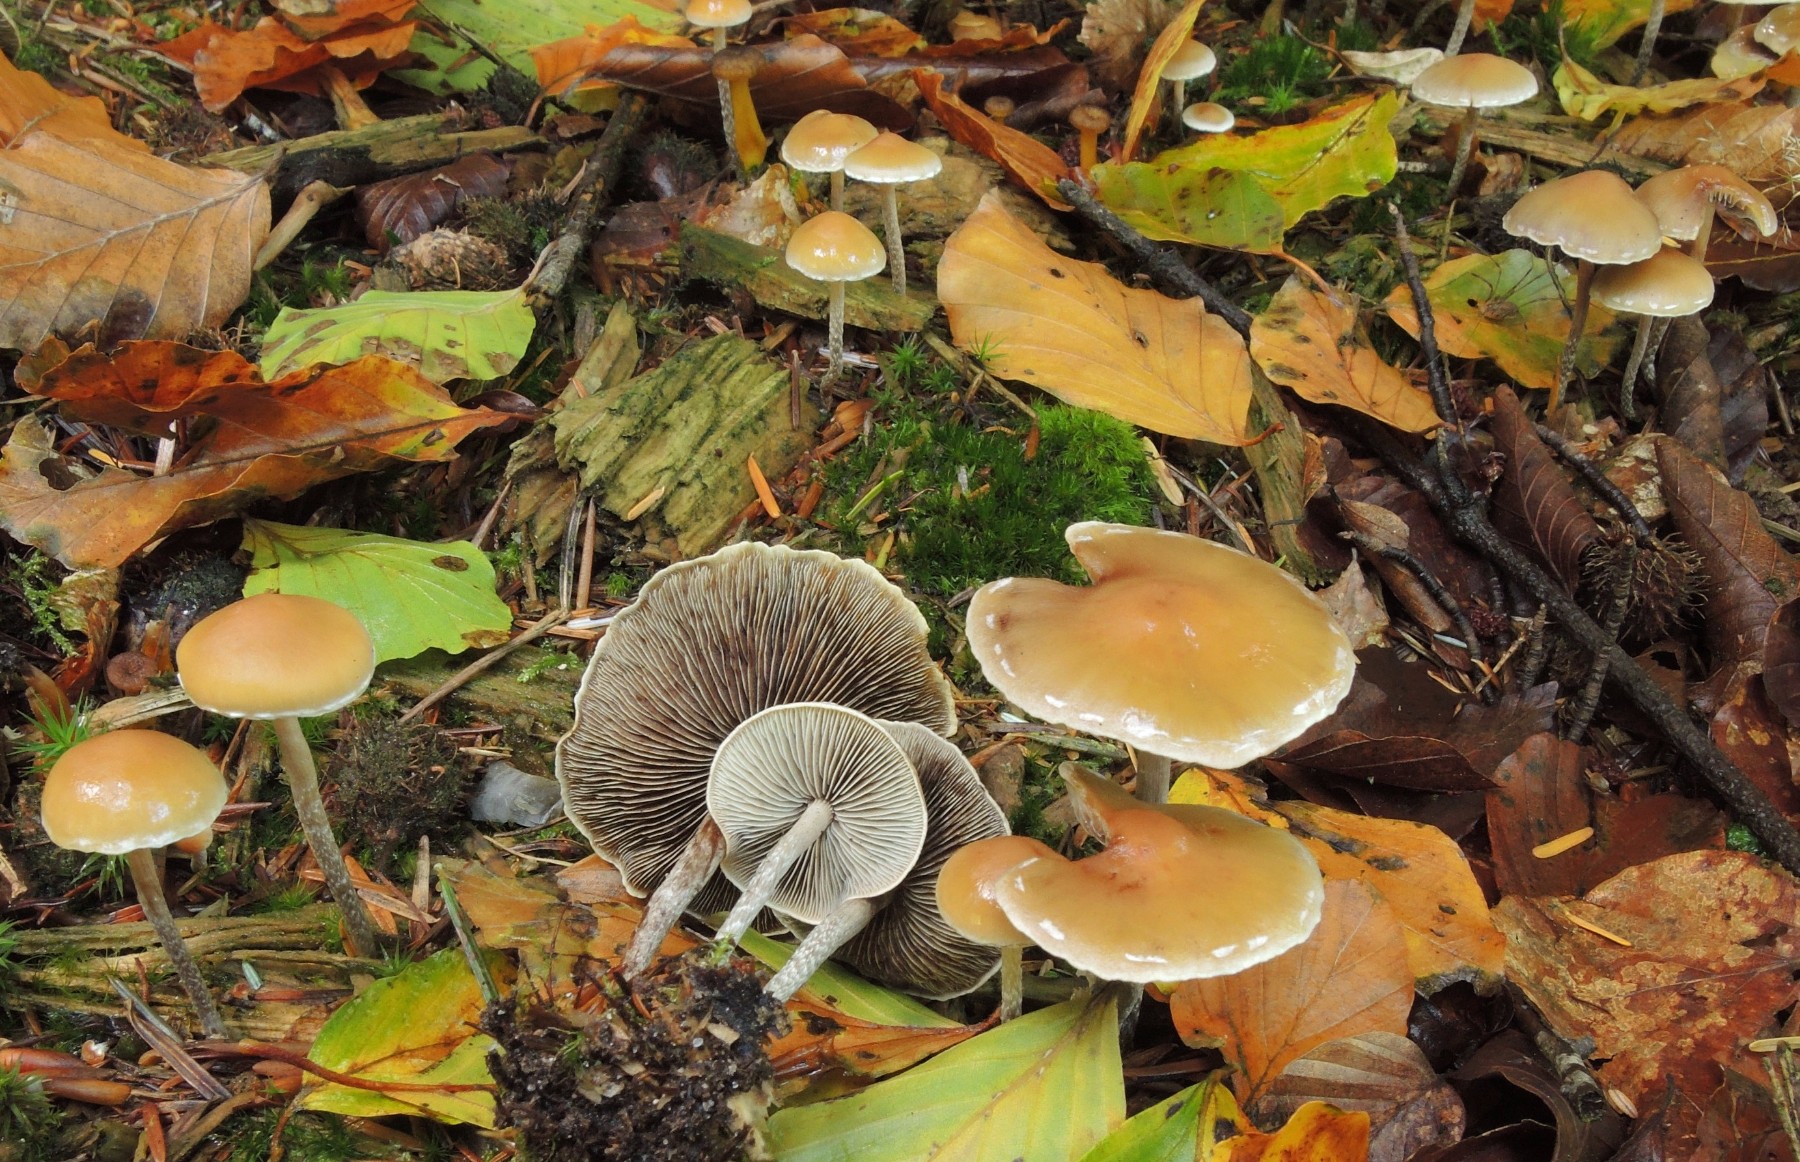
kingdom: Fungi
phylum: Basidiomycota
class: Agaricomycetes
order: Agaricales
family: Strophariaceae
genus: Hypholoma
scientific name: Hypholoma marginatum
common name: enlig svovlhat
